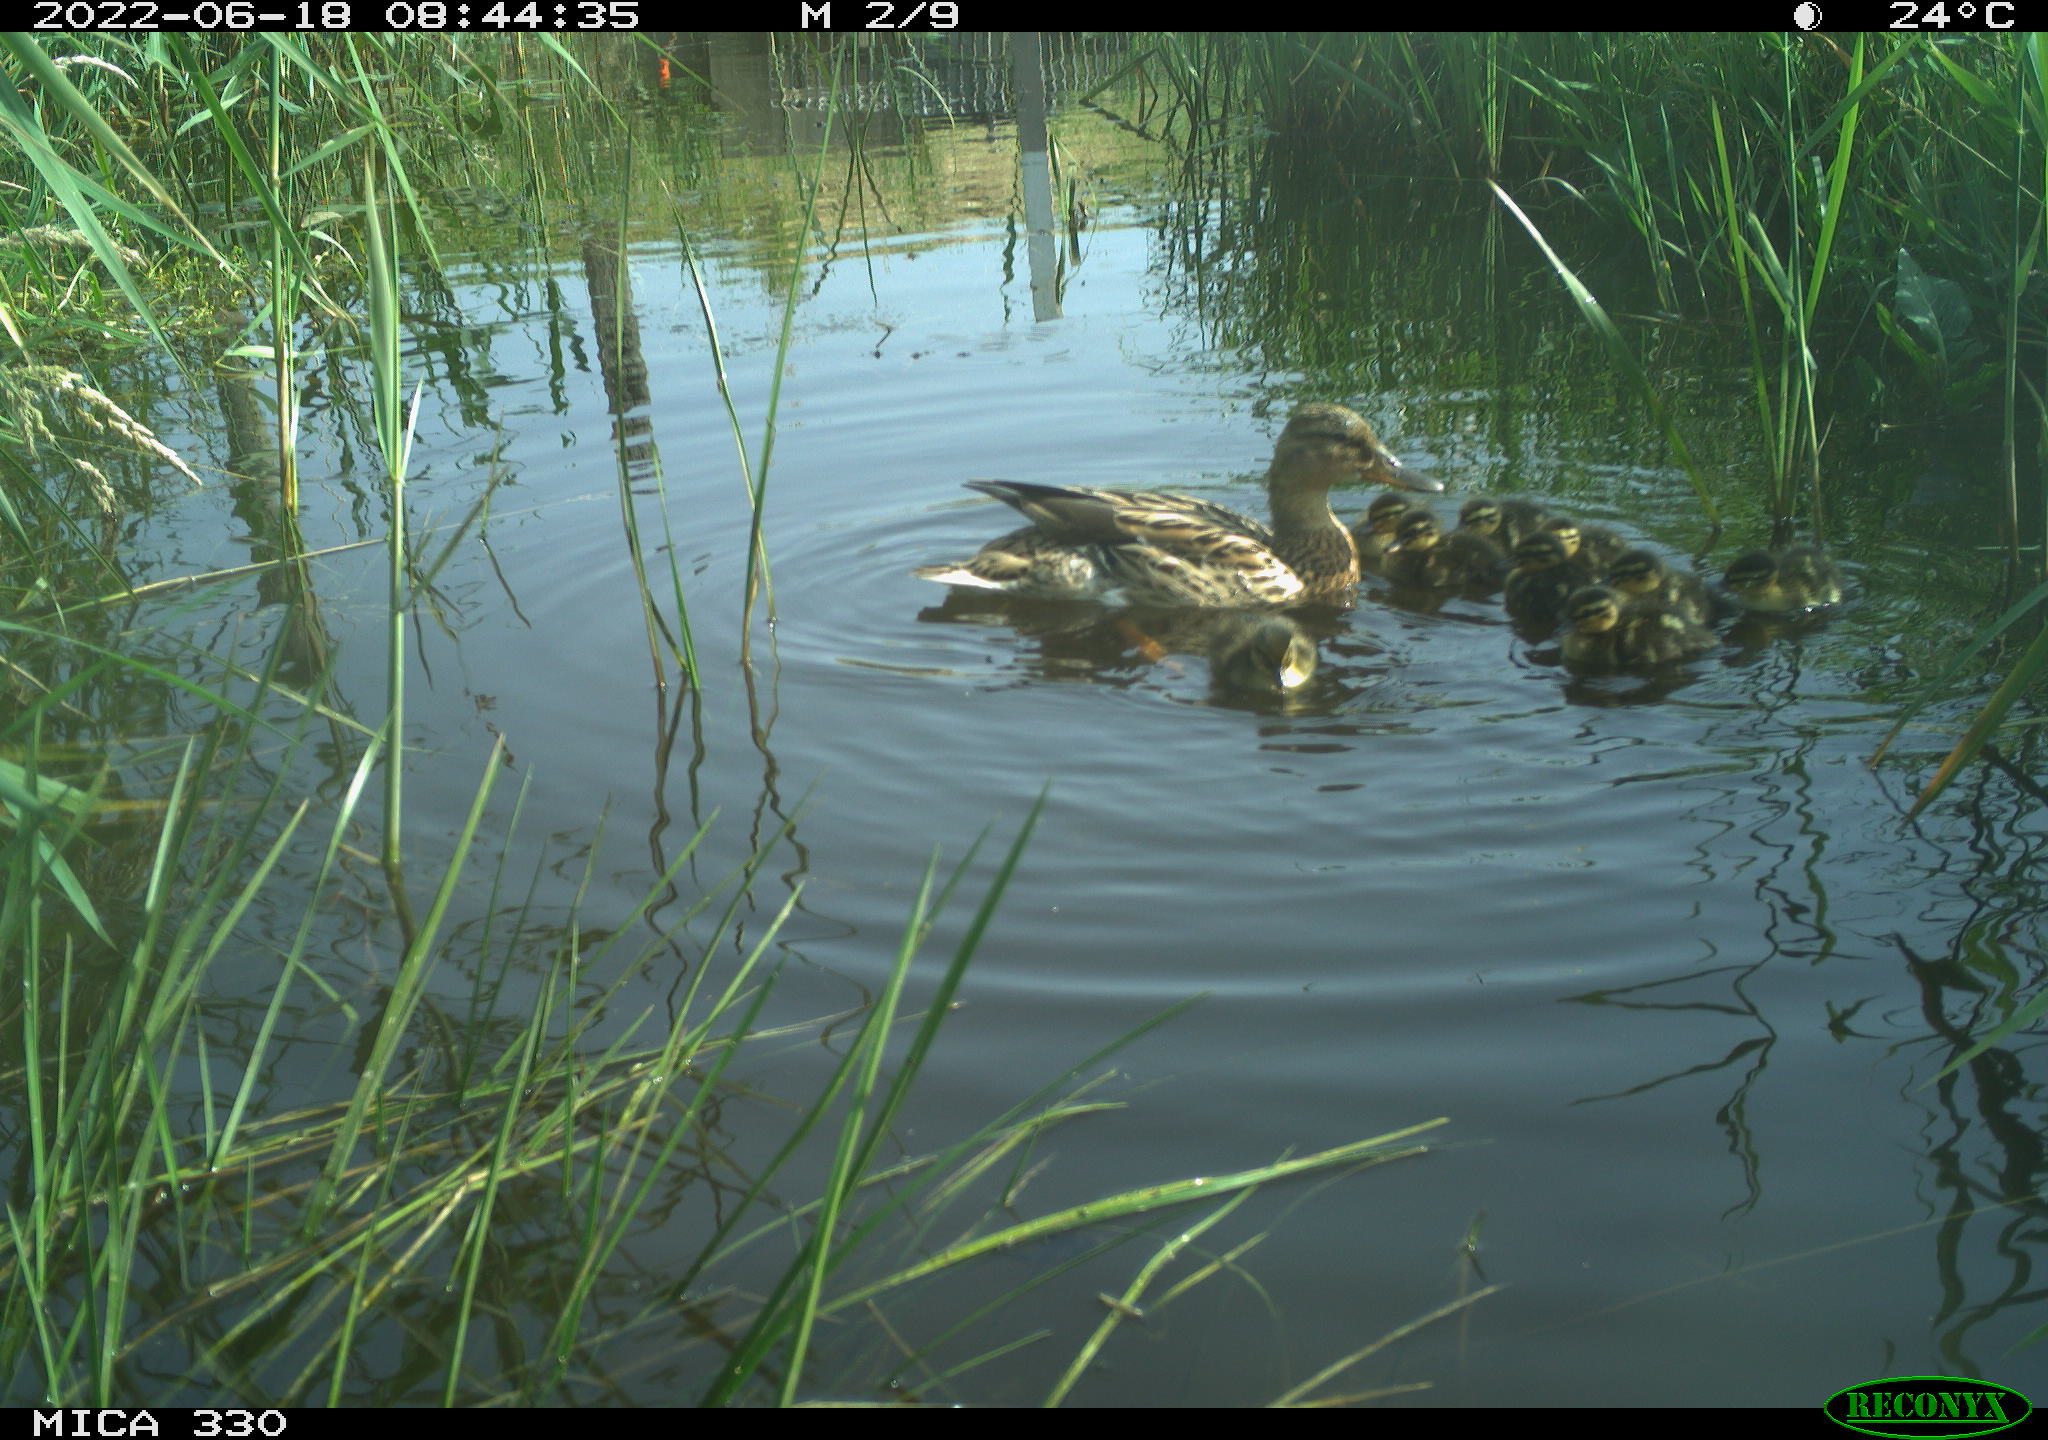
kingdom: Animalia
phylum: Chordata
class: Aves
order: Anseriformes
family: Anatidae
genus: Mareca
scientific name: Mareca strepera
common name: Gadwall
